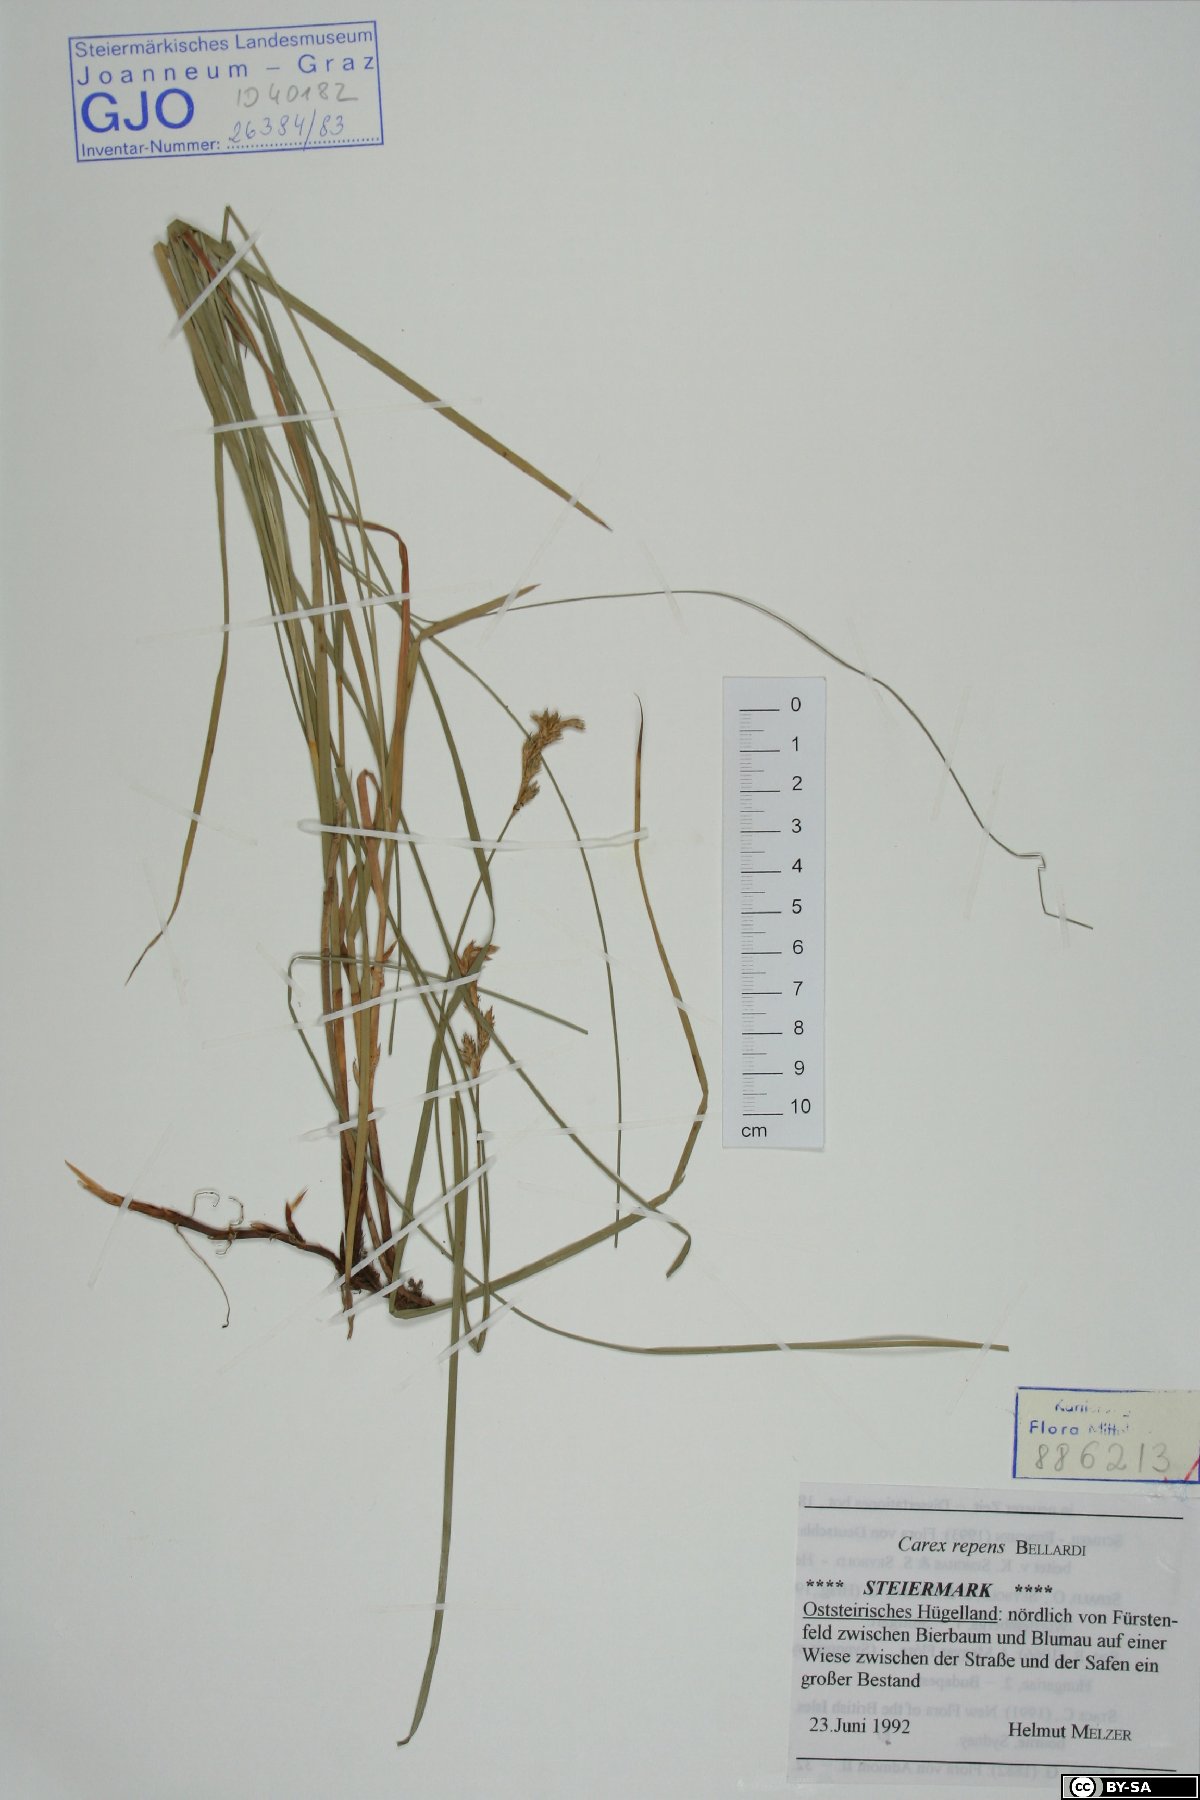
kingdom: Plantae
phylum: Tracheophyta
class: Liliopsida
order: Poales
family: Cyperaceae
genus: Carex
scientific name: Carex repens
